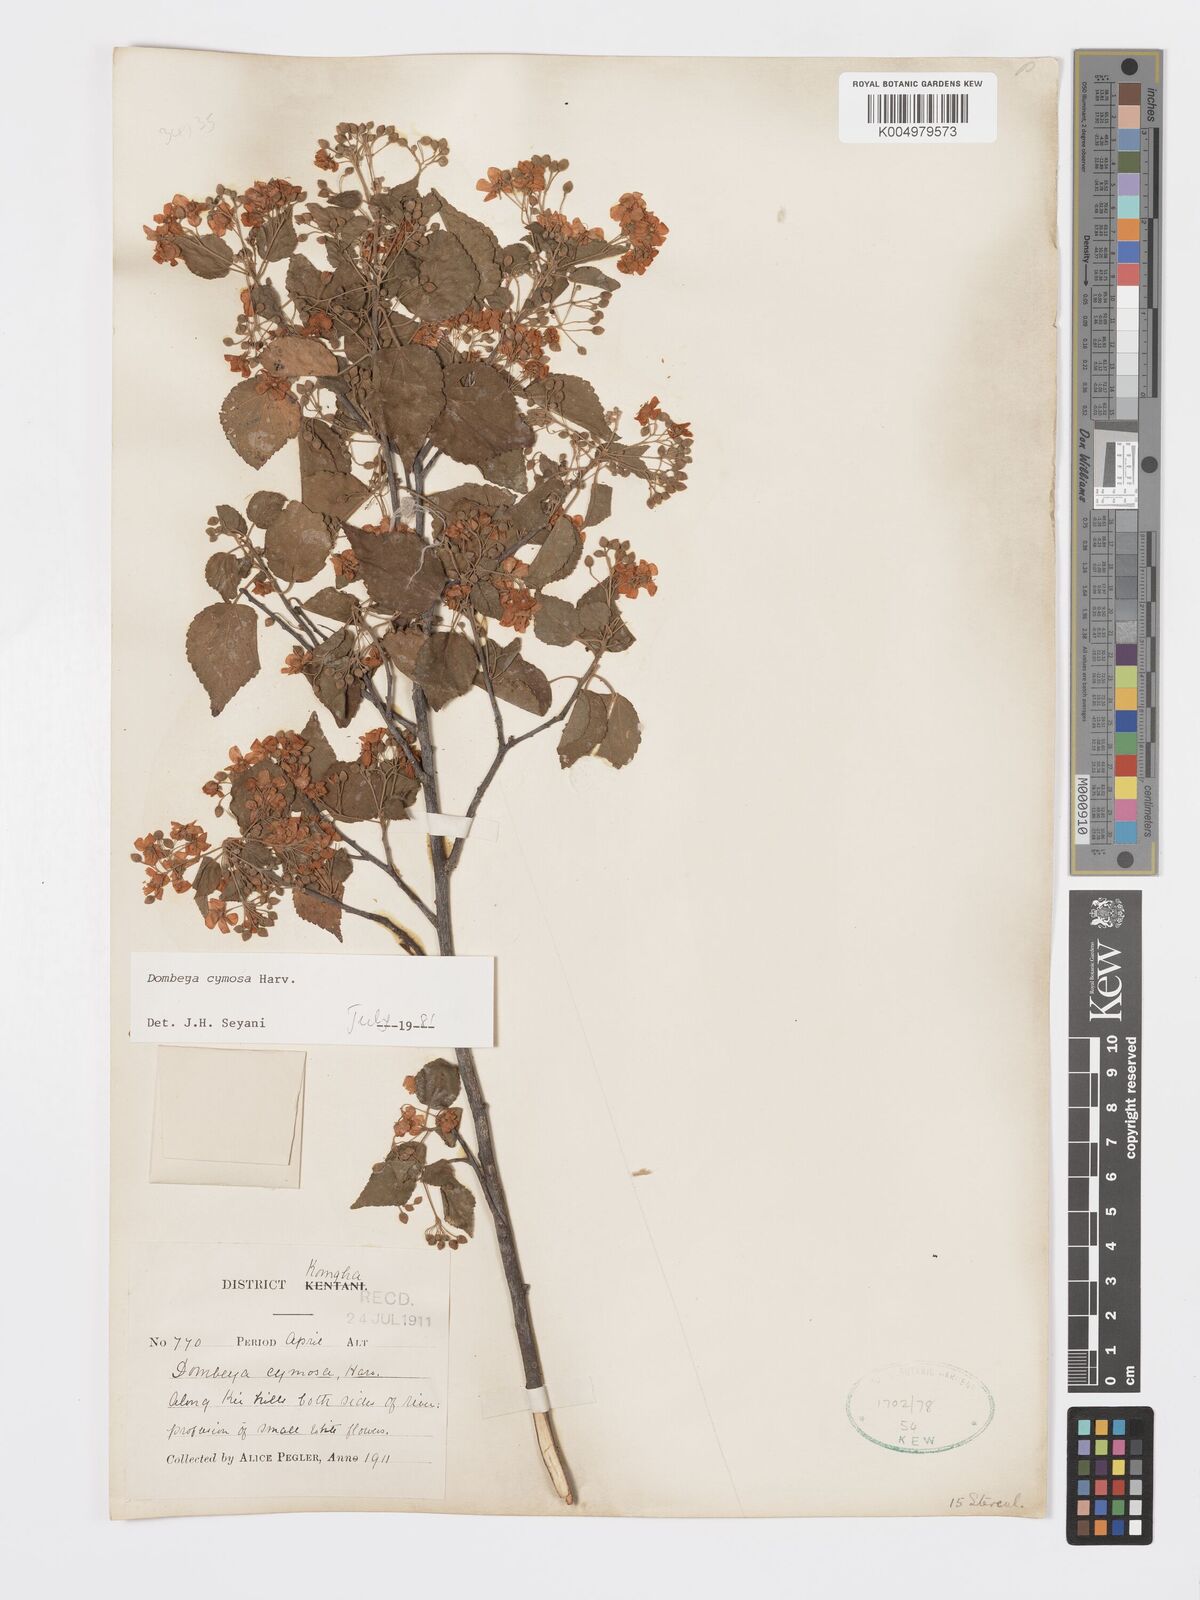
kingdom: Plantae
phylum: Tracheophyta
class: Magnoliopsida
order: Malvales
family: Malvaceae
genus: Dombeya
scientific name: Dombeya cymosa
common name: Hairless dombeya
